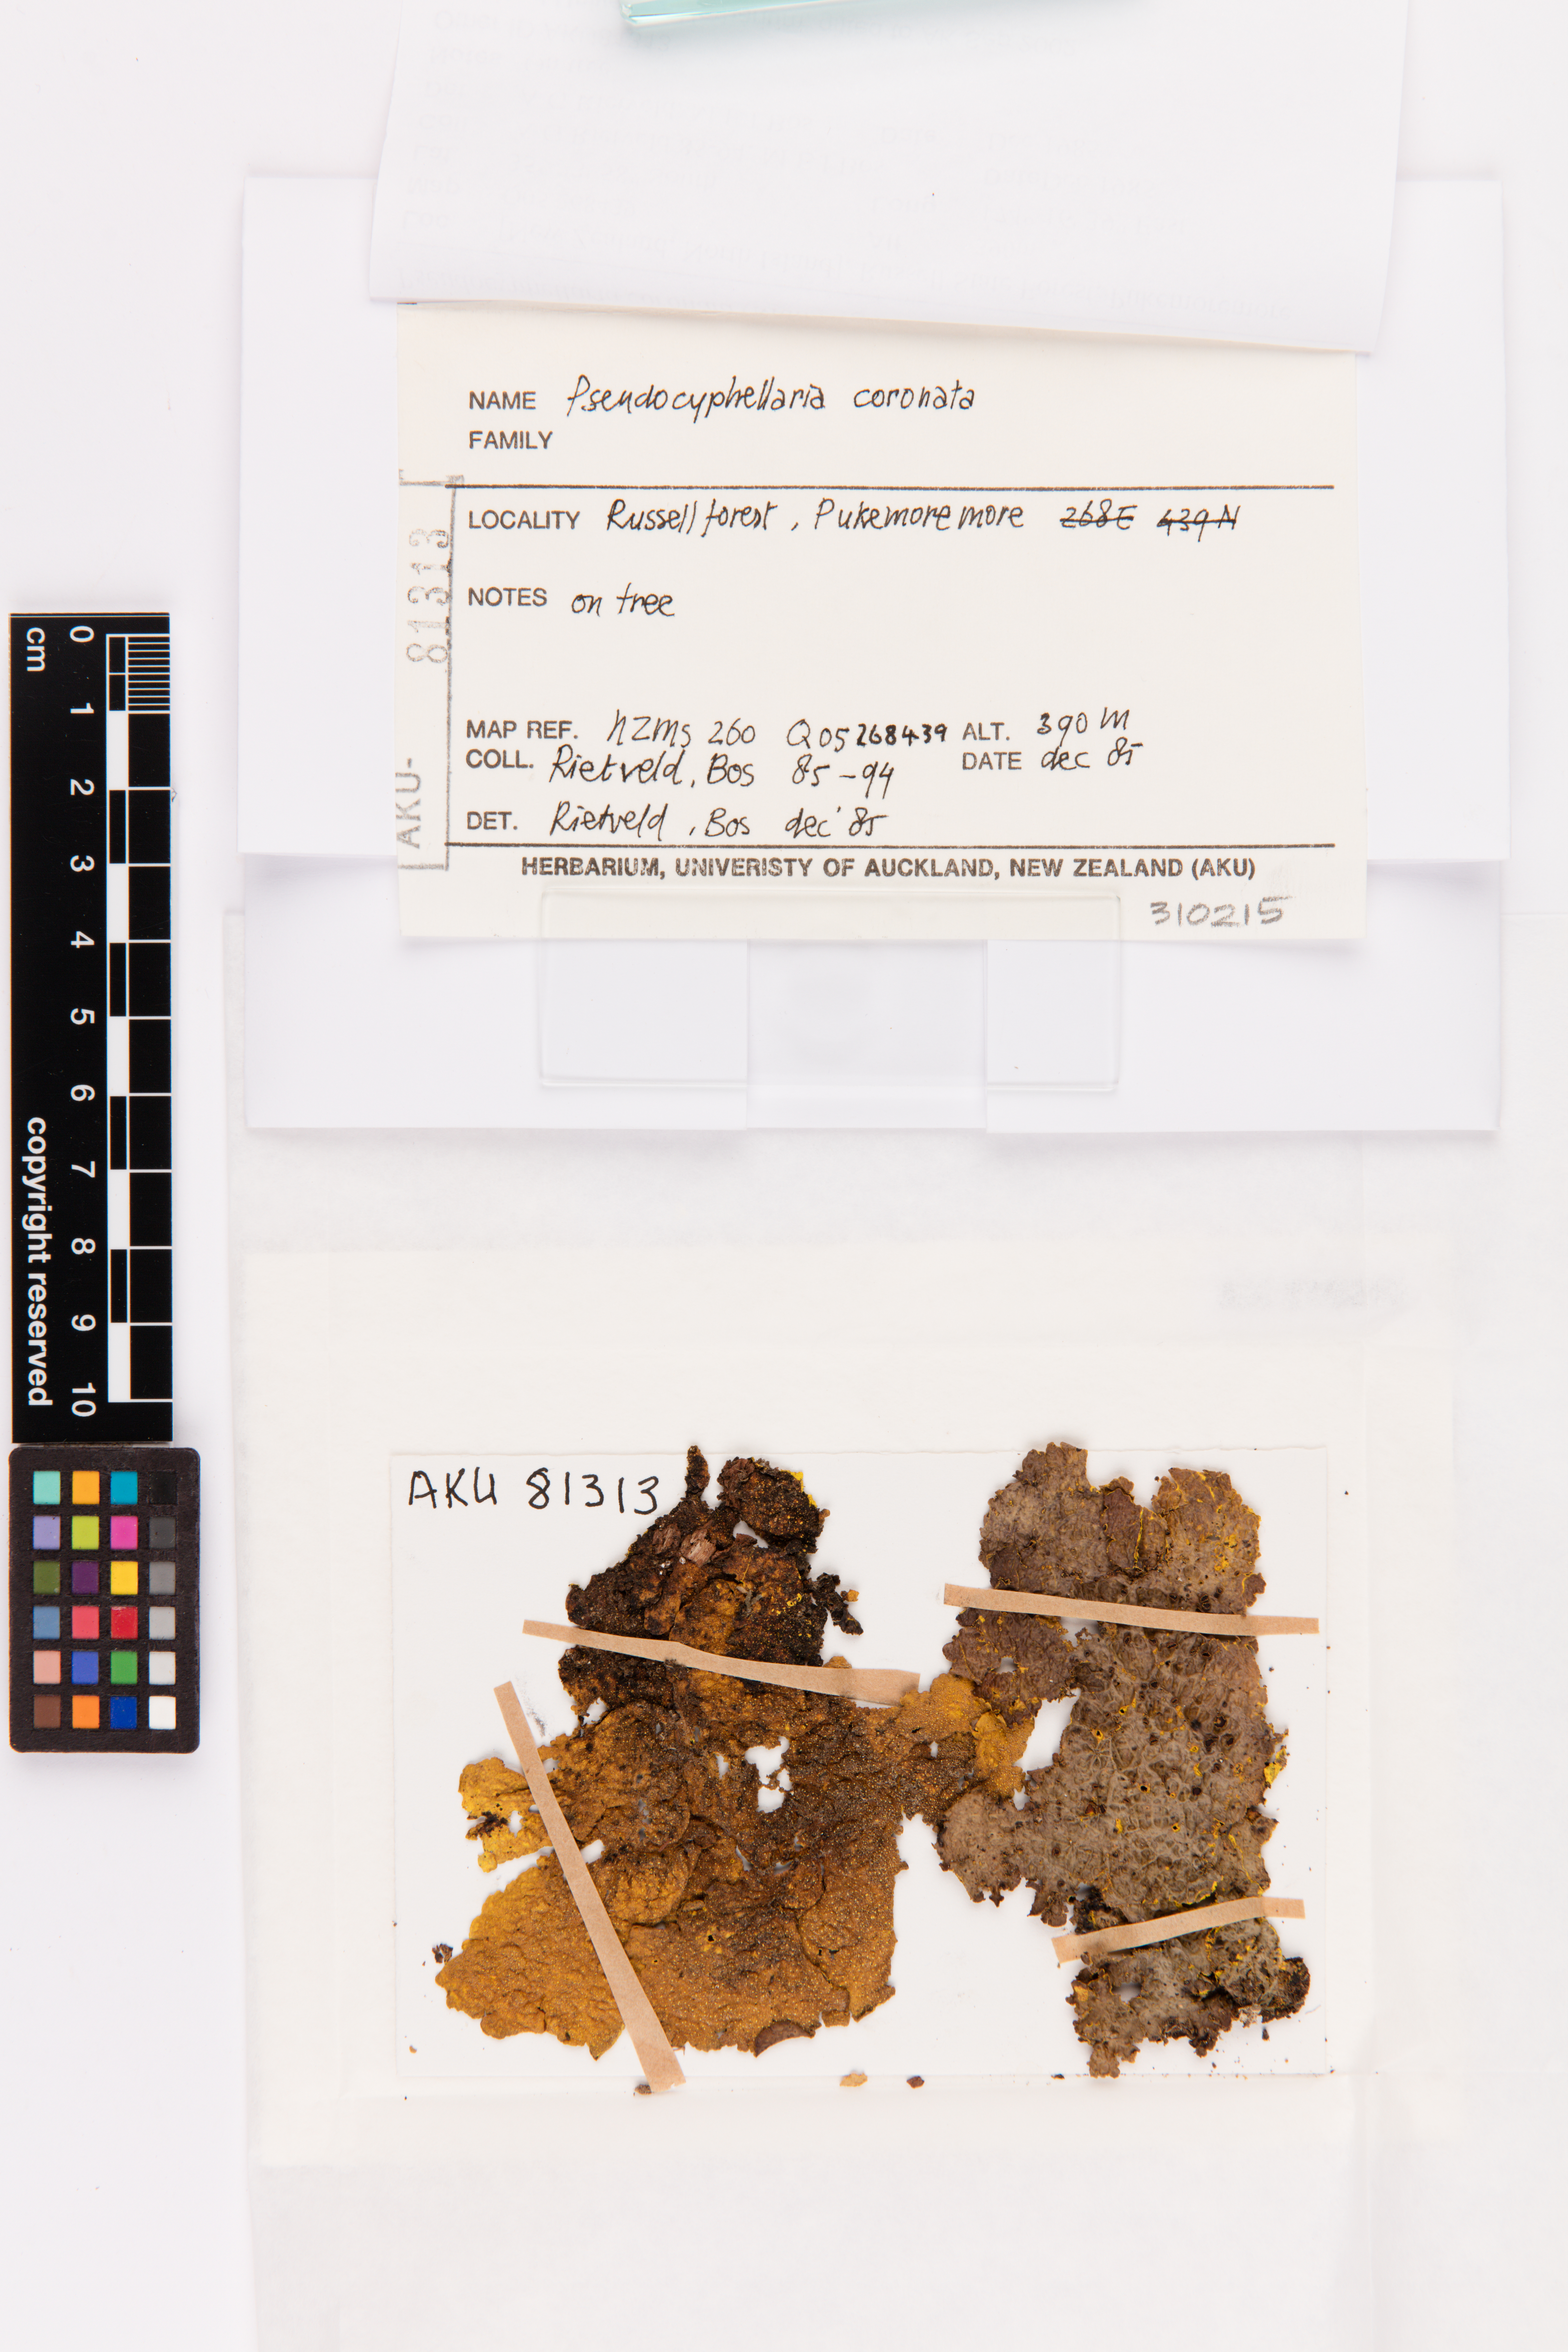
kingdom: Fungi
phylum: Ascomycota
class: Lecanoromycetes
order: Peltigerales
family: Lobariaceae
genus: Yarrumia
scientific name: Yarrumia coronata
